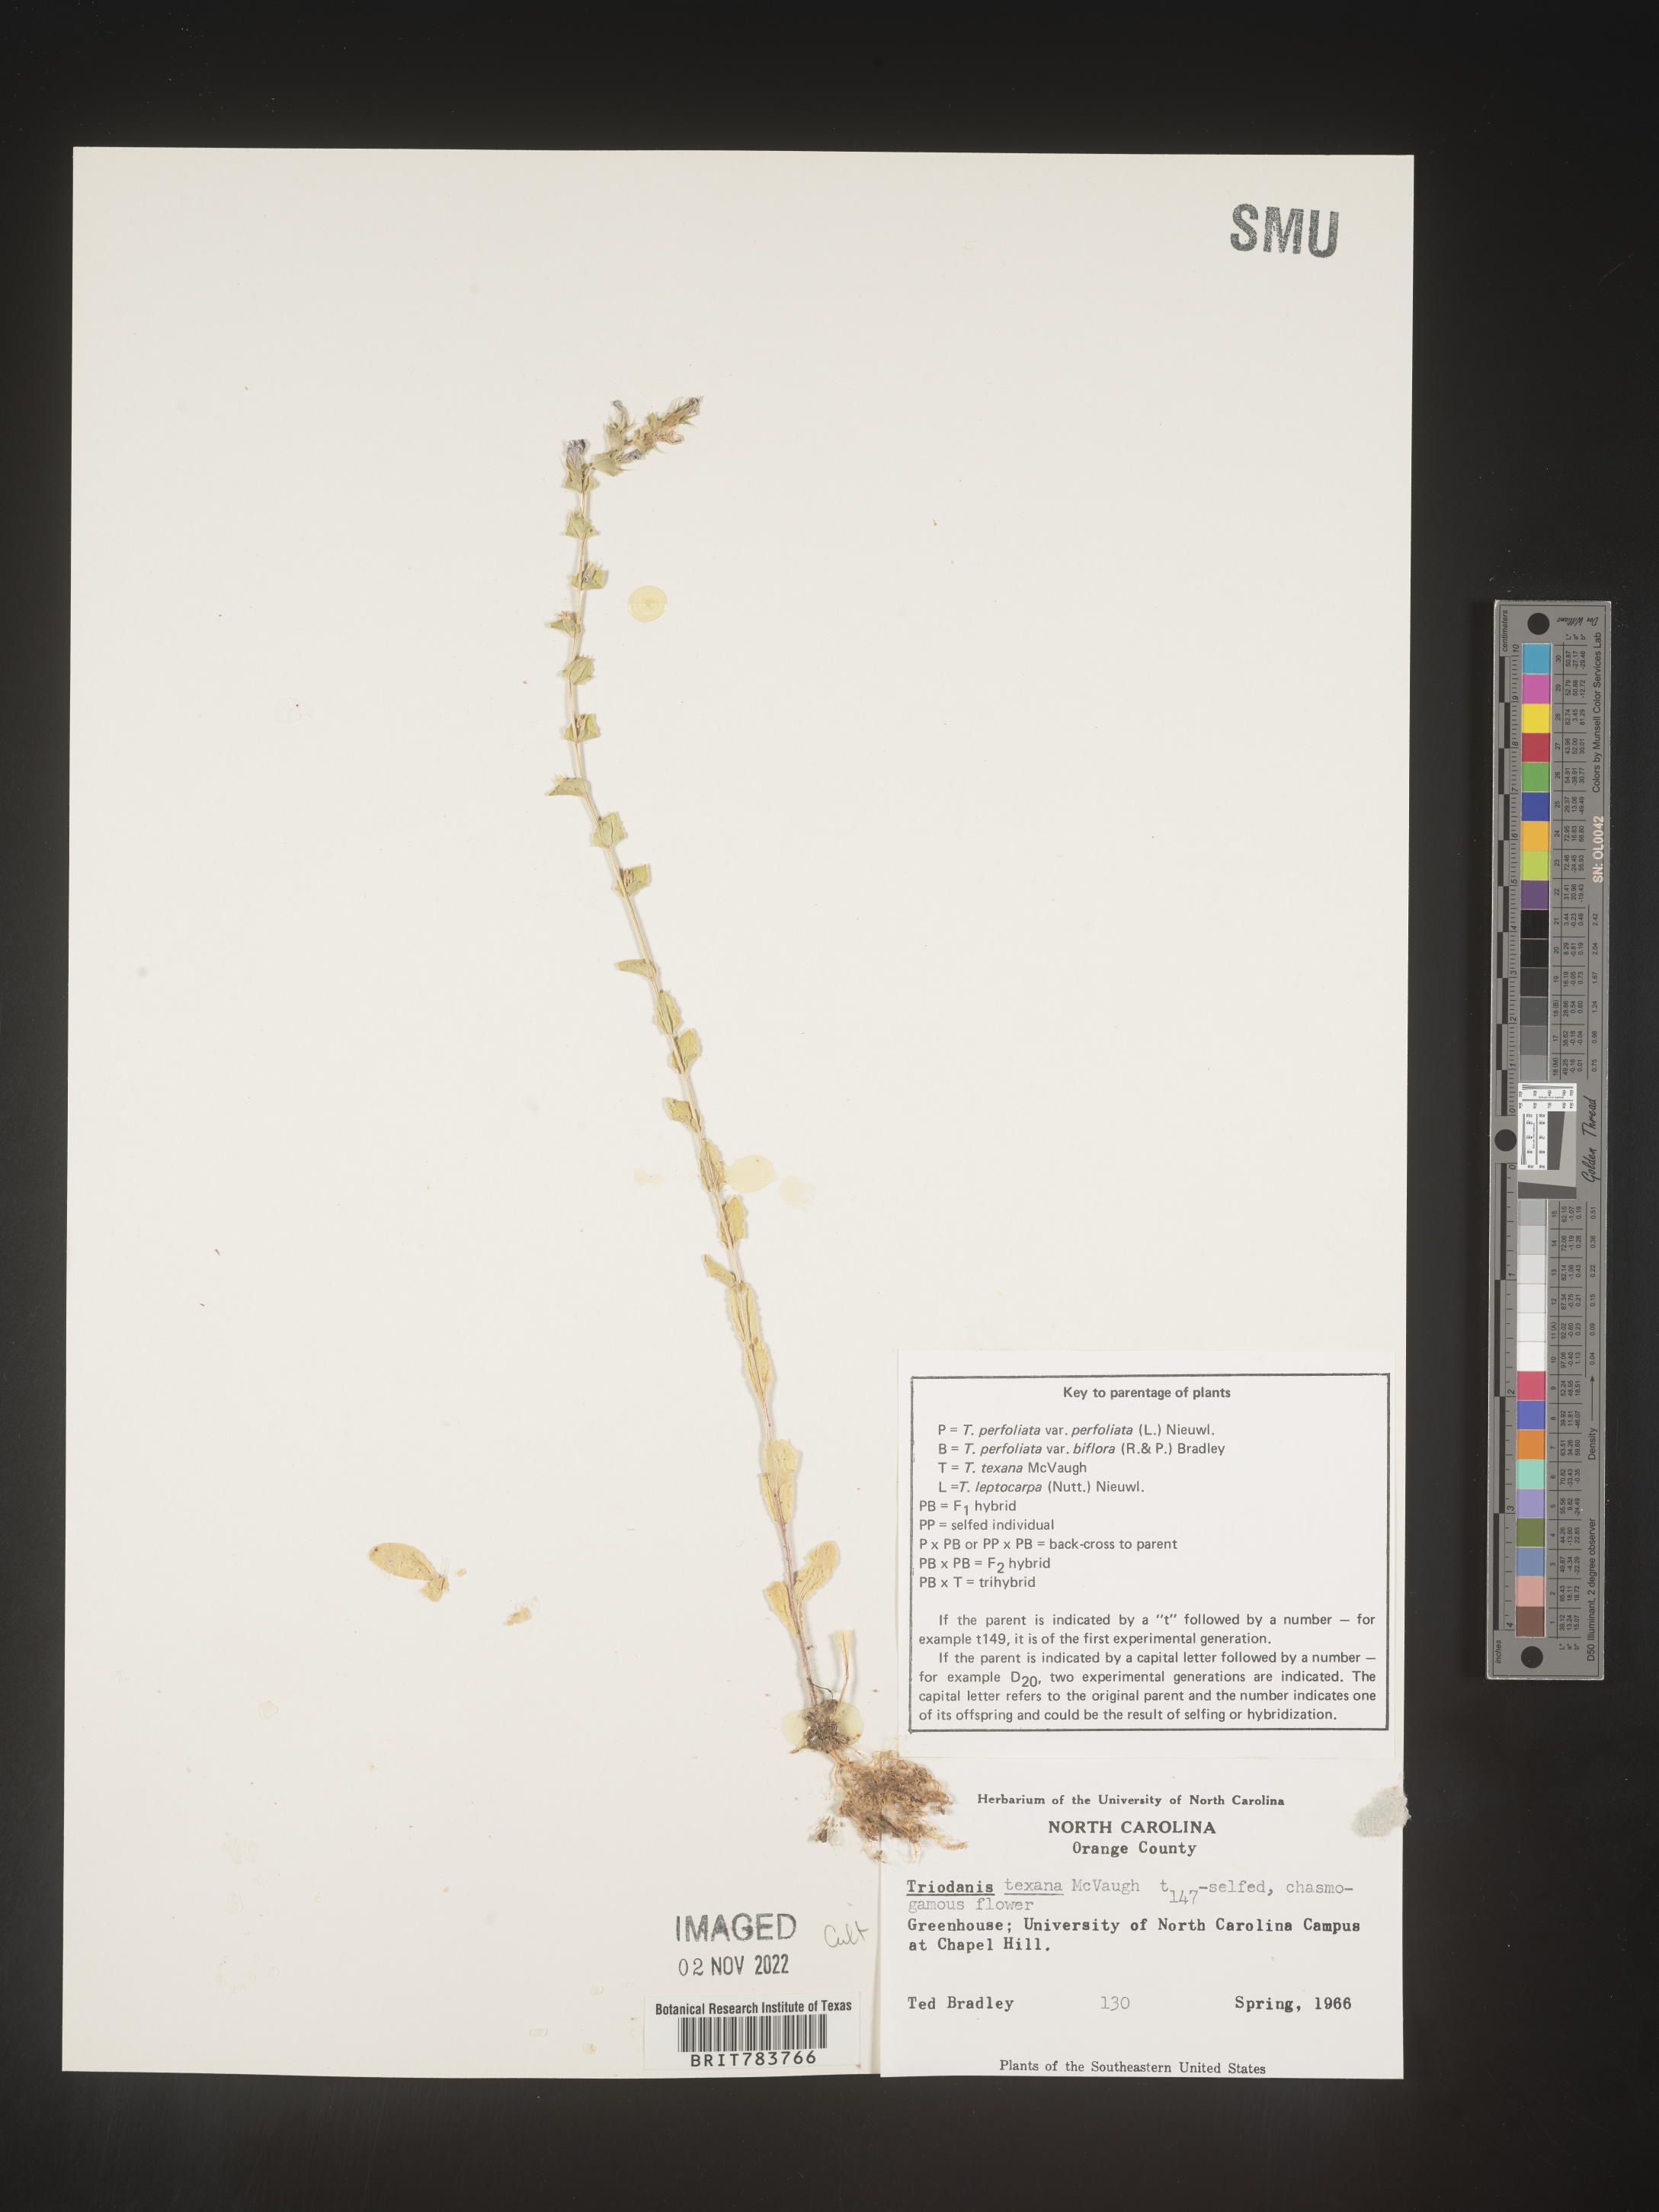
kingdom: Plantae
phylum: Tracheophyta
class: Magnoliopsida
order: Asterales
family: Campanulaceae
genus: Triodanis
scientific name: Triodanis
